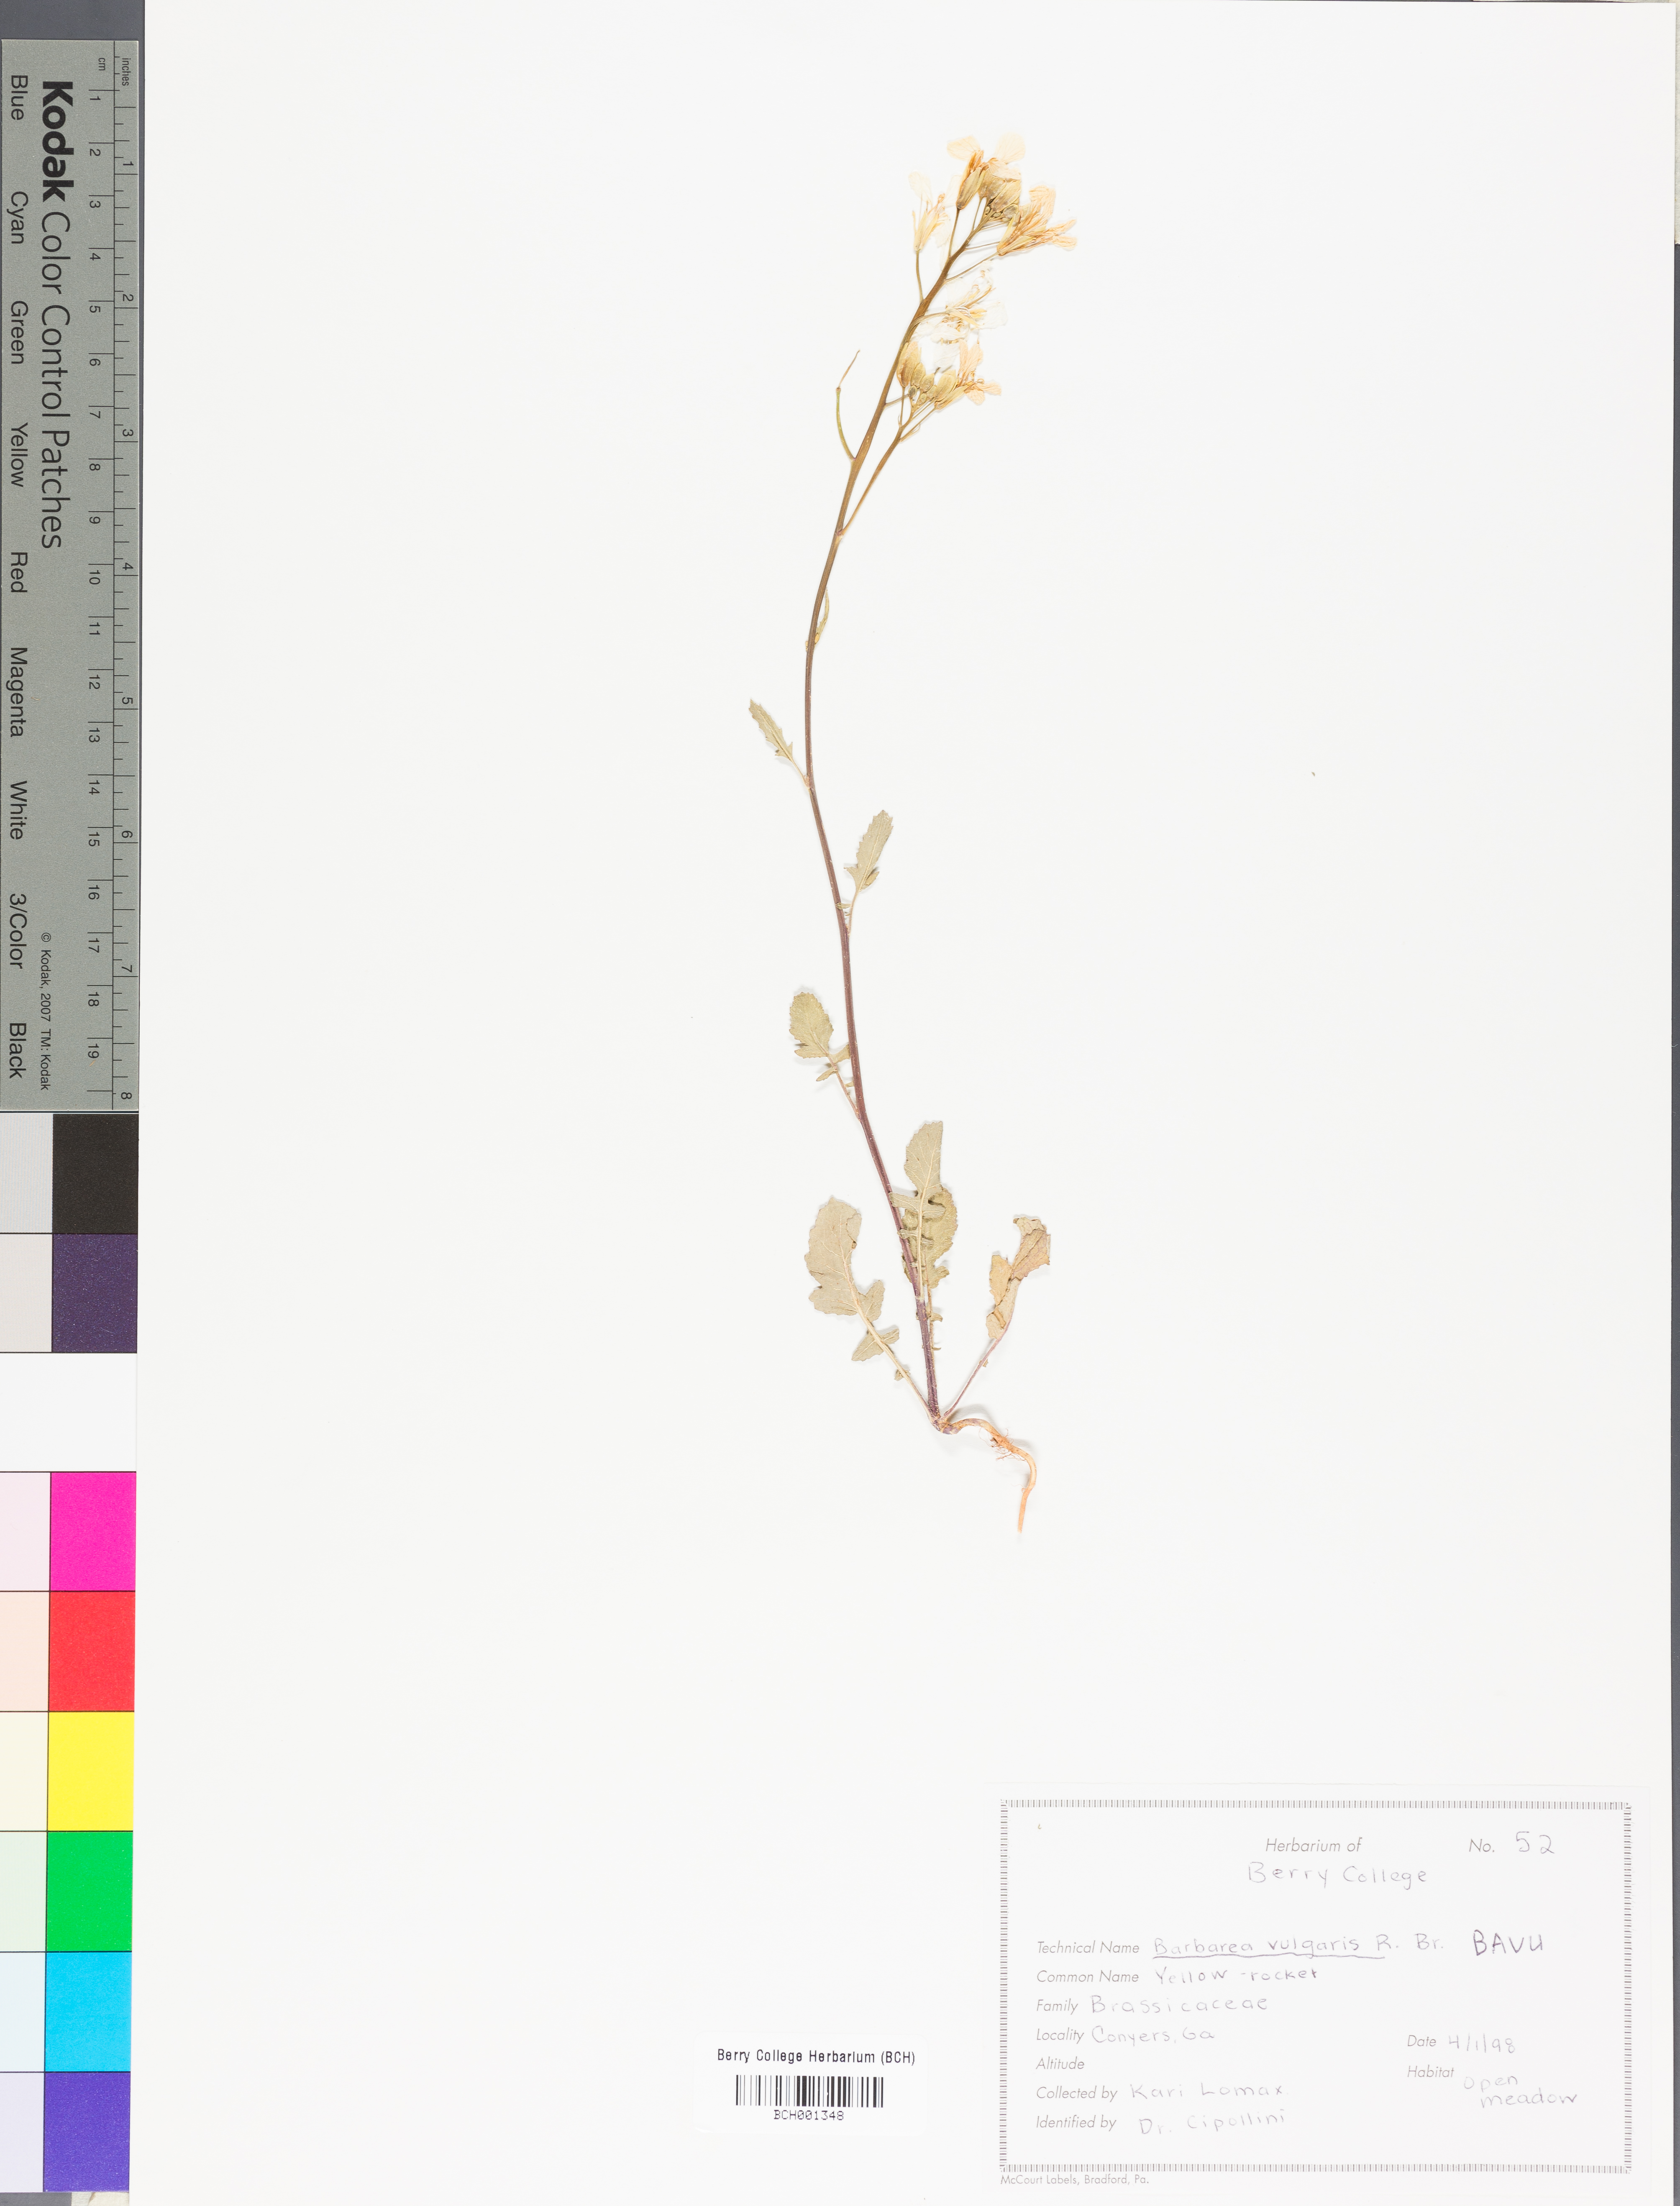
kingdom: Plantae
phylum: Tracheophyta
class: Magnoliopsida
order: Brassicales
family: Brassicaceae
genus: Barbarea
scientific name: Barbarea vulgaris
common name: Cressy-greens
